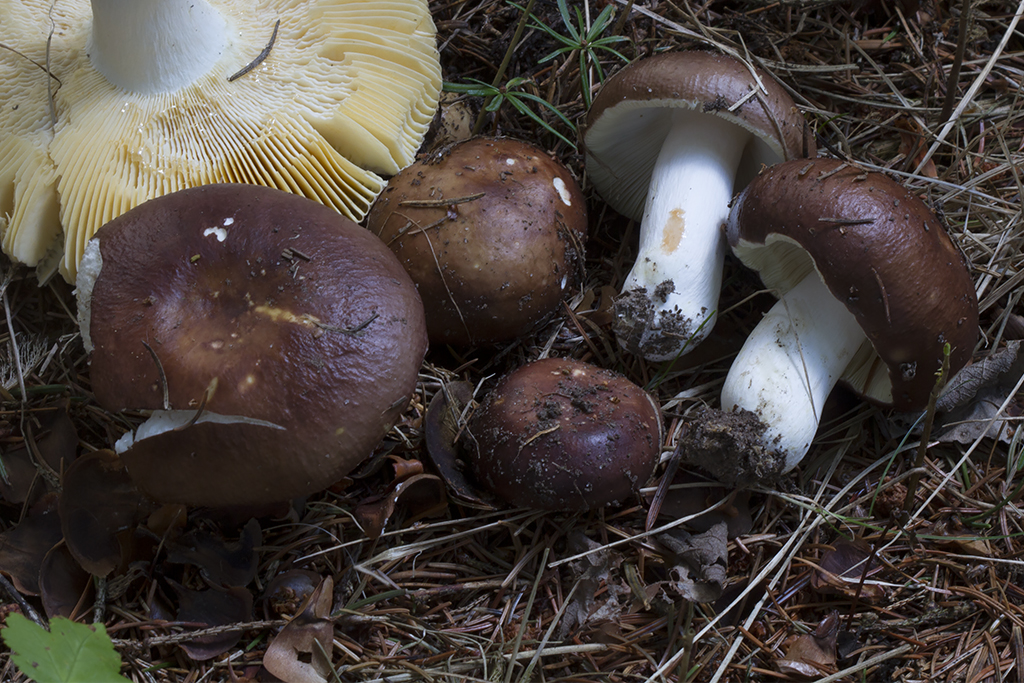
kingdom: Fungi
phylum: Basidiomycota
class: Agaricomycetes
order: Russulales
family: Russulaceae
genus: Russula
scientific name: Russula integra
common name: mandel-skørhat
